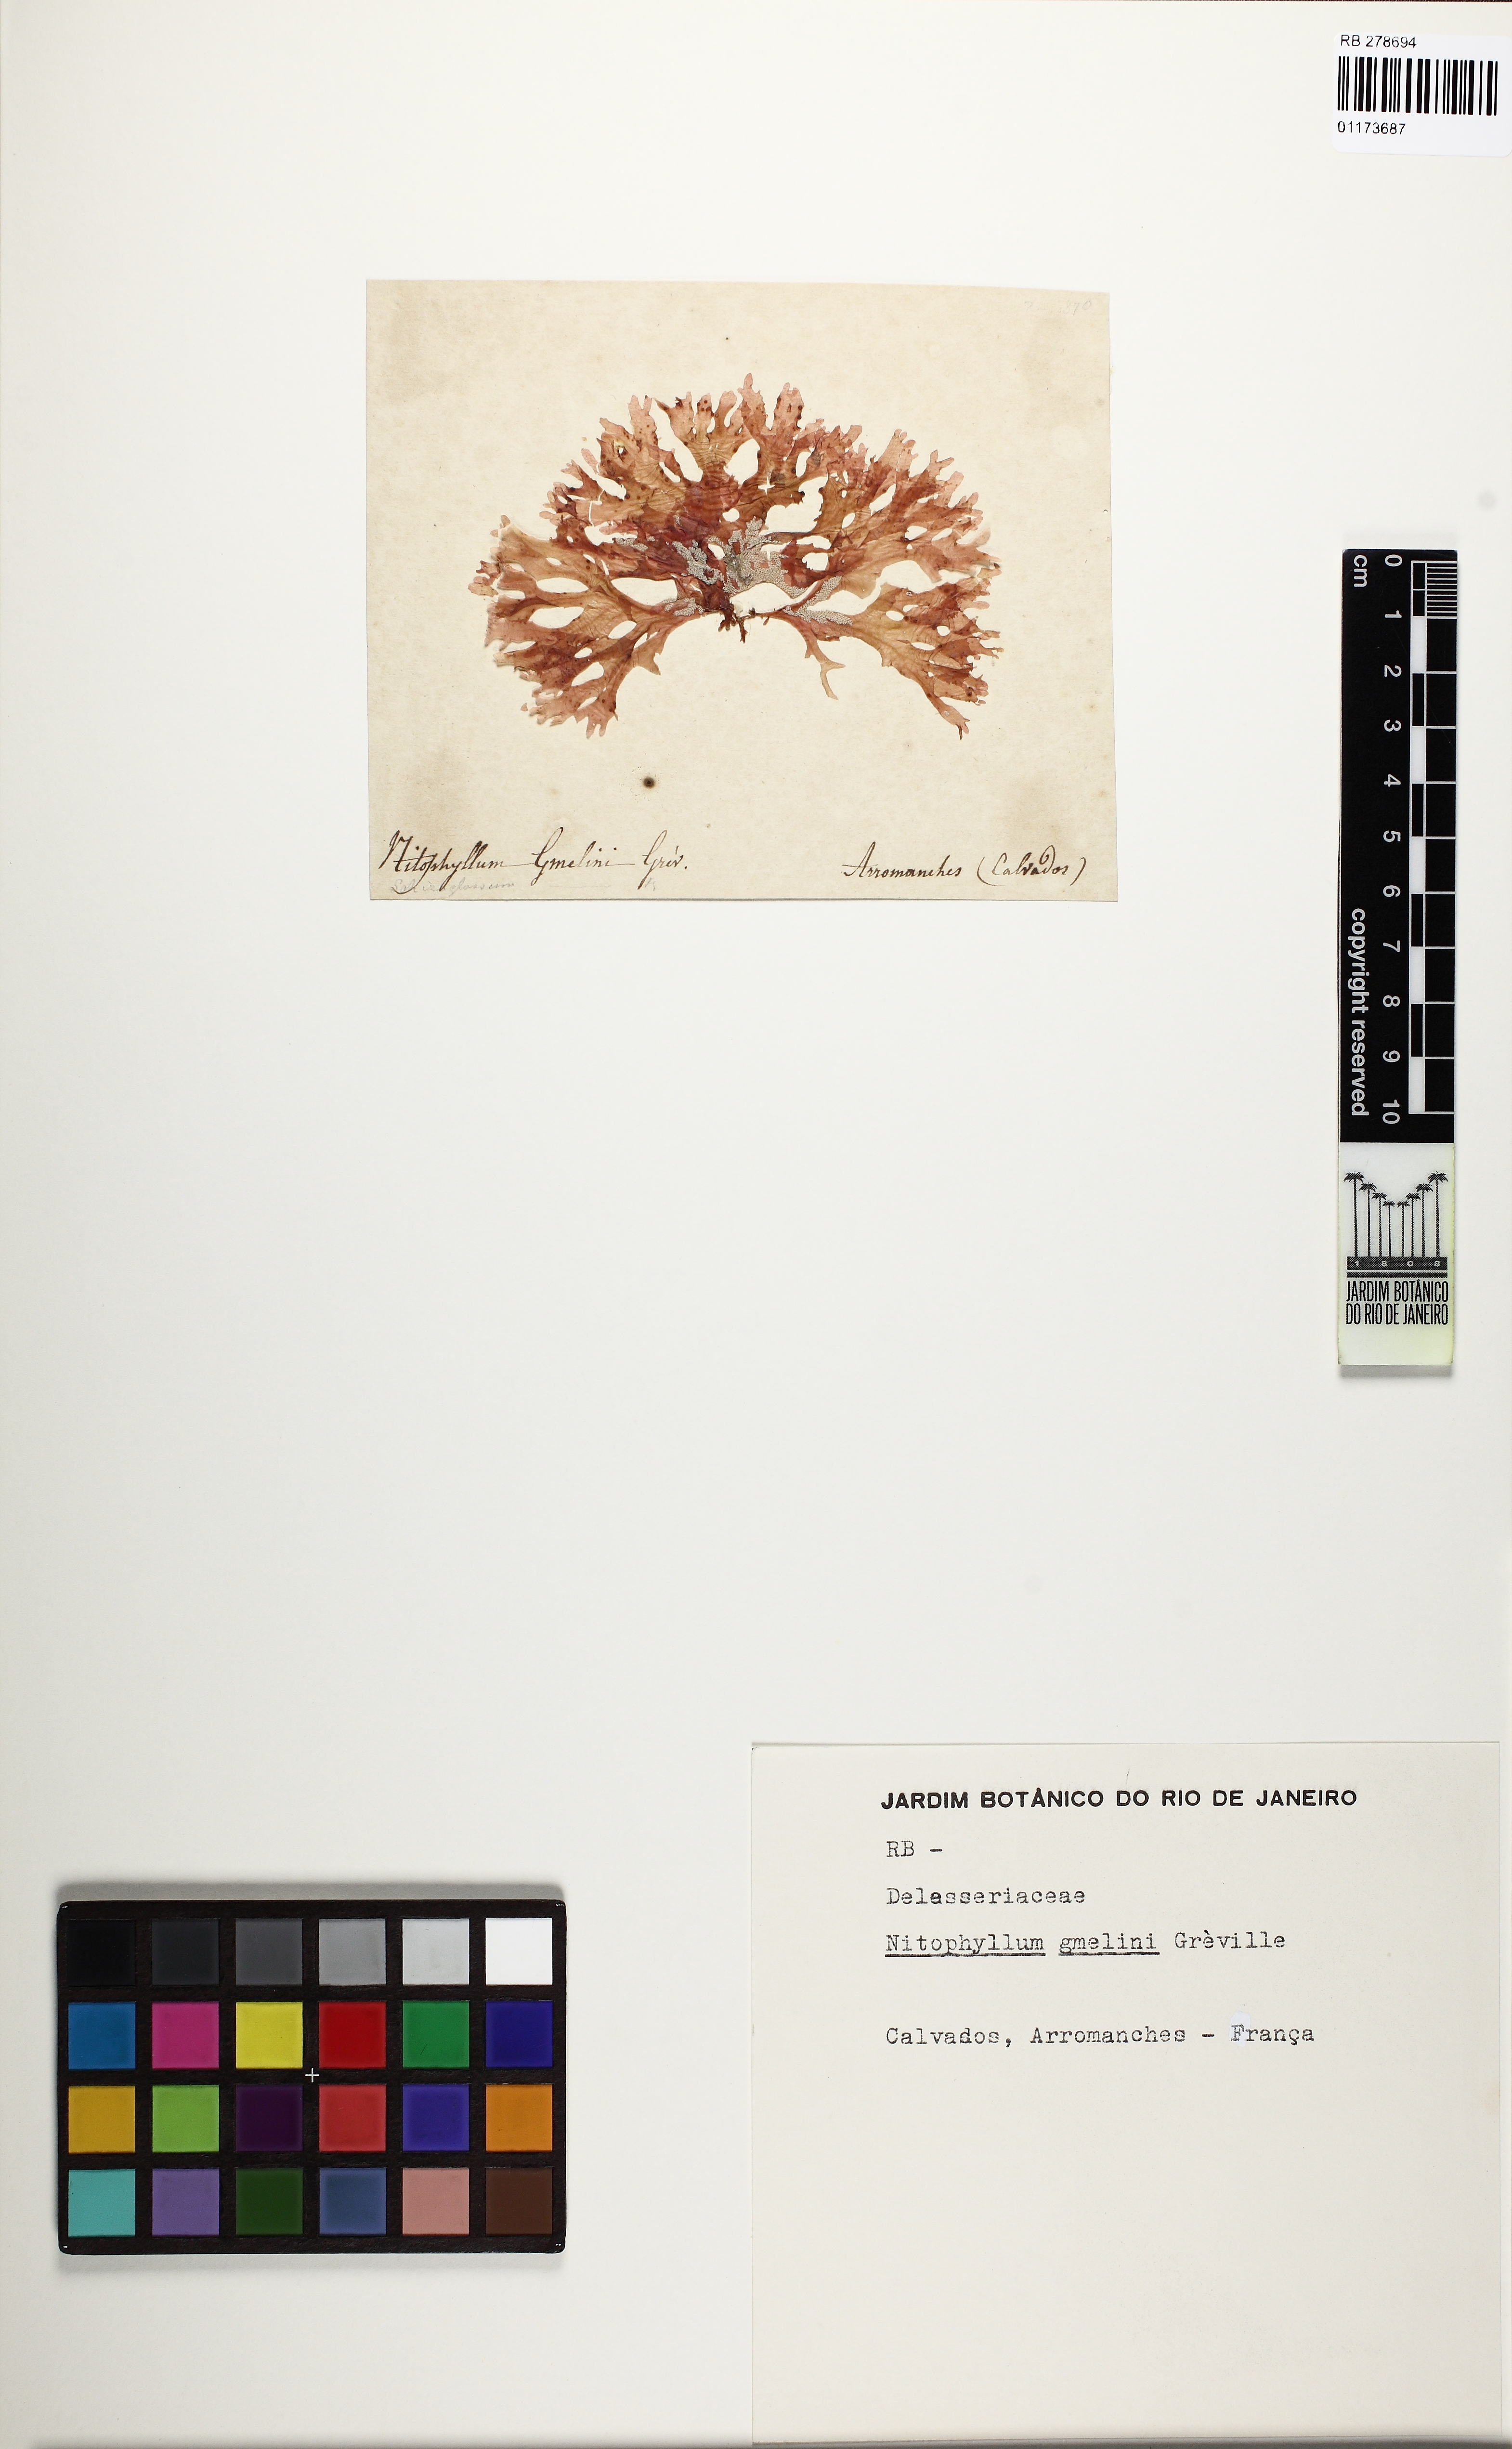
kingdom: Plantae
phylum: Rhodophyta
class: Florideophyceae
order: Halymeniales
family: Halymeniaceae
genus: Cryptonemia
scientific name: Cryptonemia palmetta
